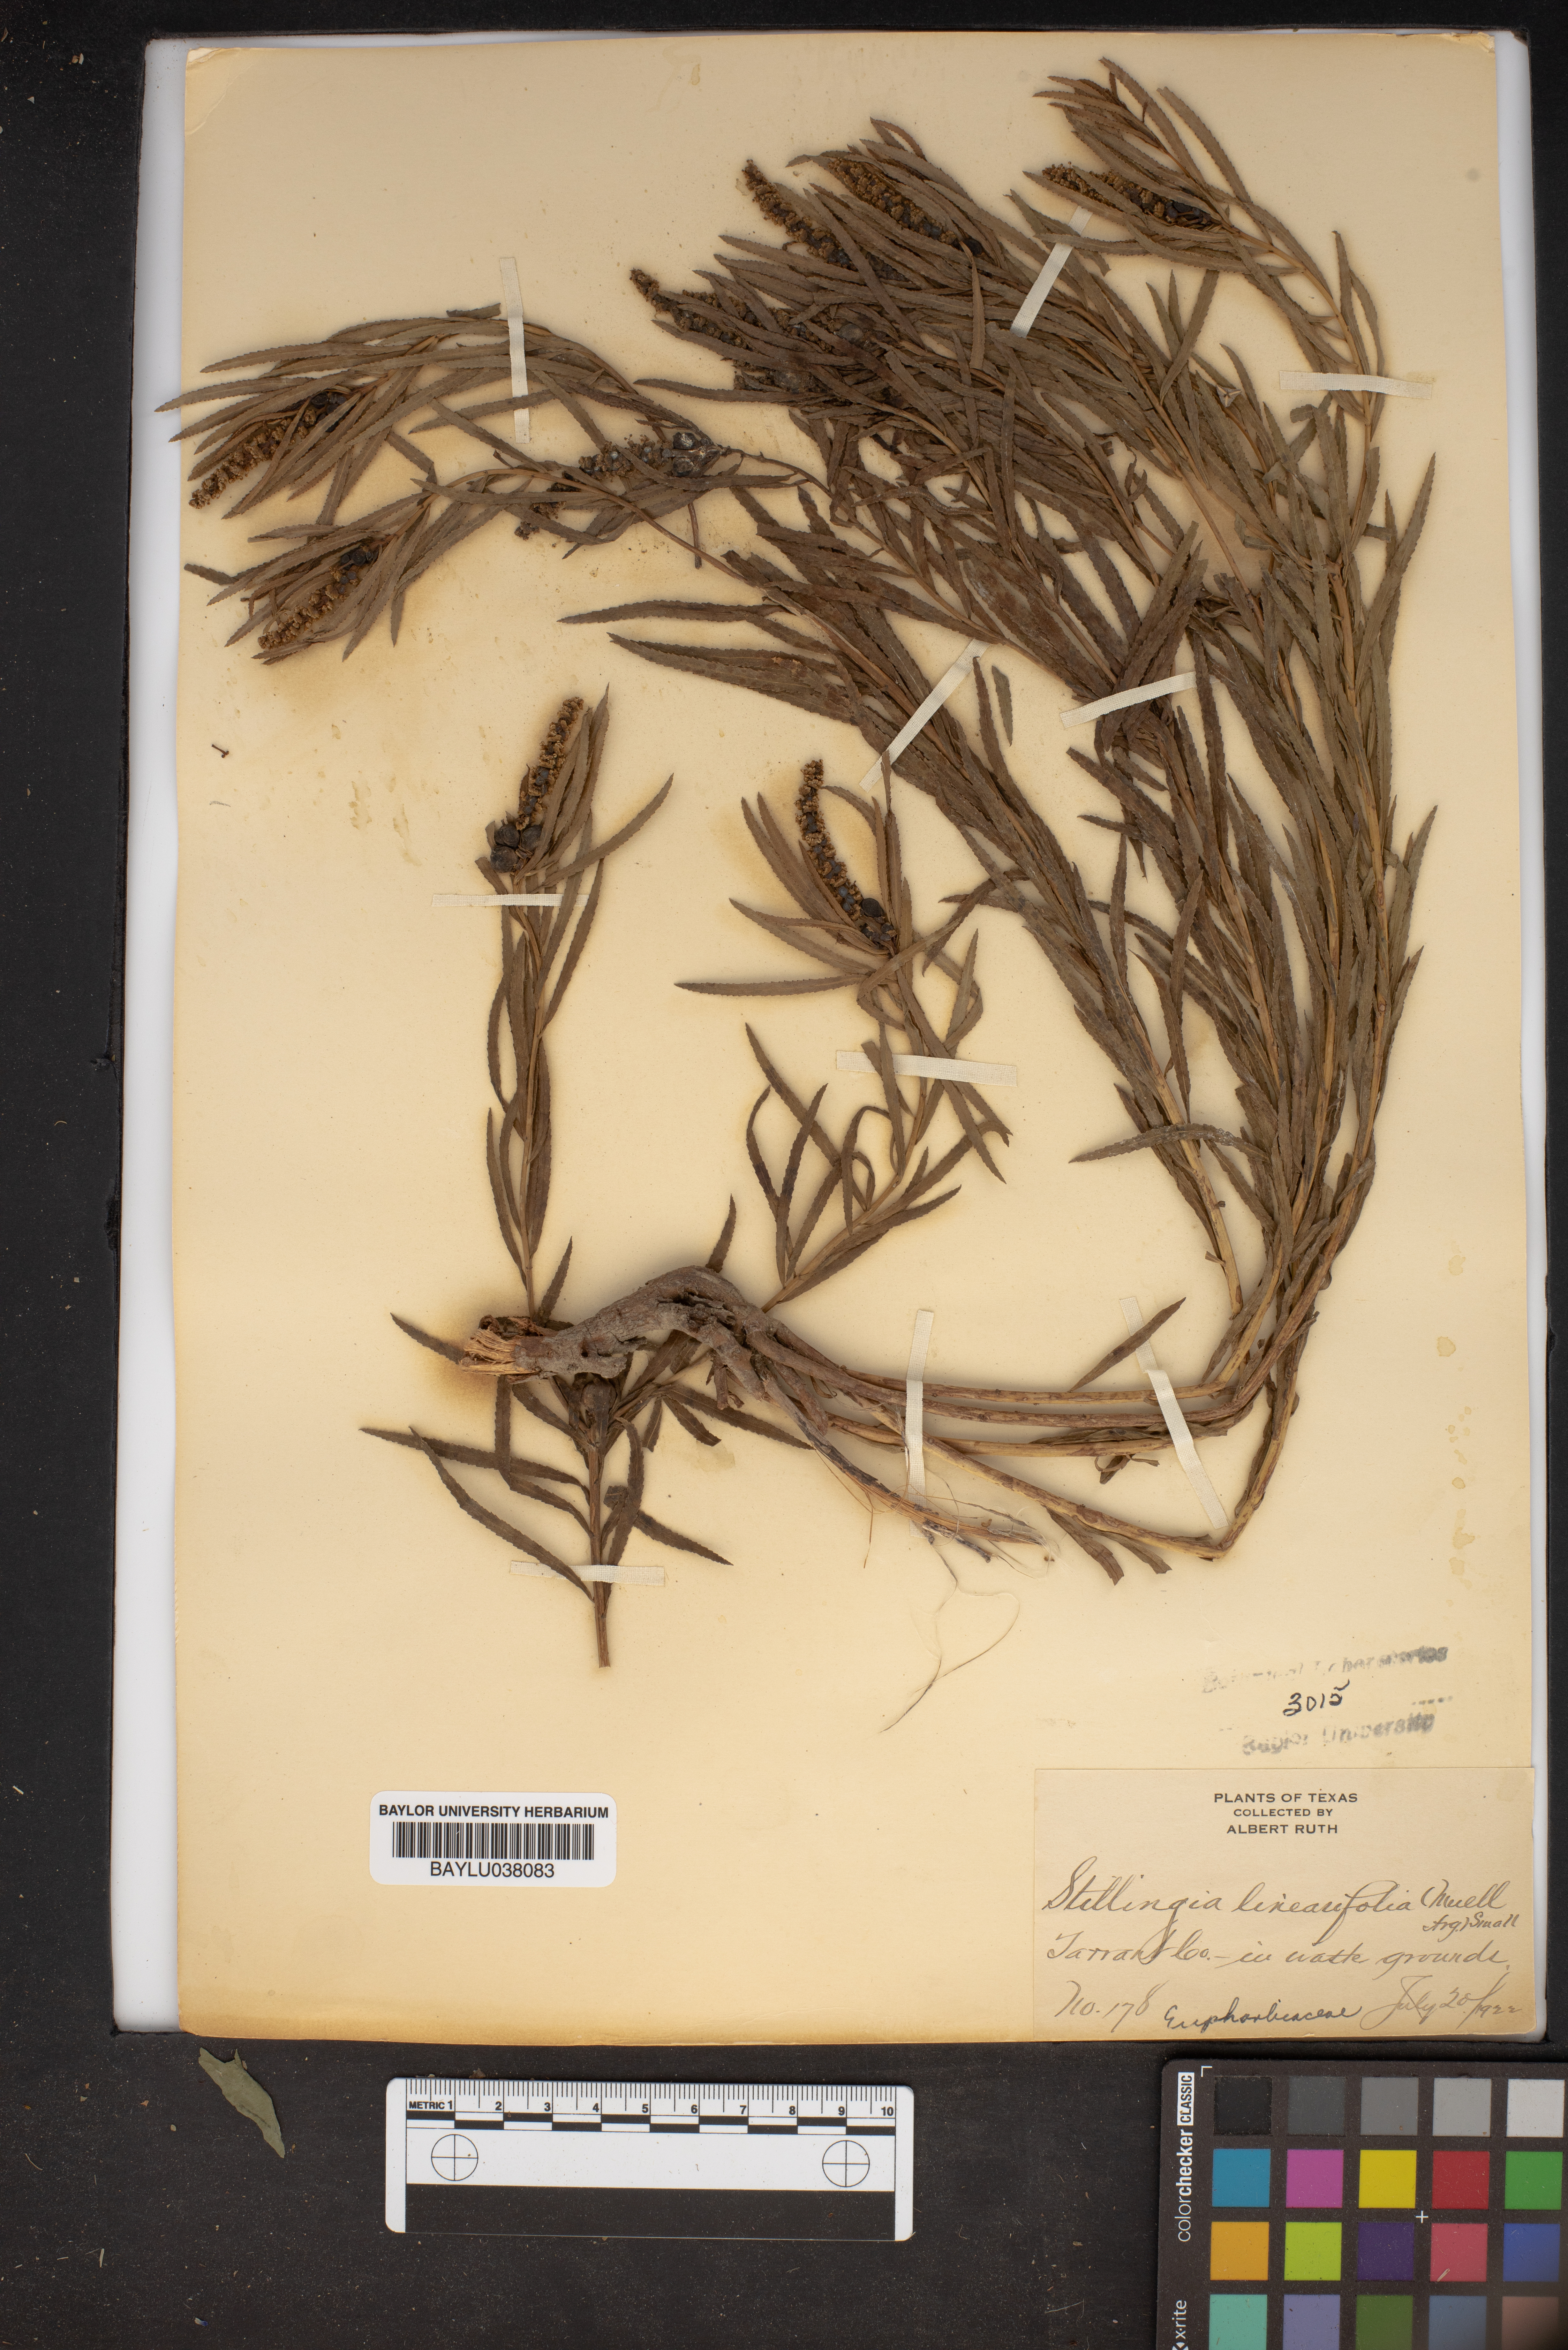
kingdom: Plantae
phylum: Tracheophyta
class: Magnoliopsida
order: Malpighiales
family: Euphorbiaceae
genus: Stillingia
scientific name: Stillingia linearifolia
